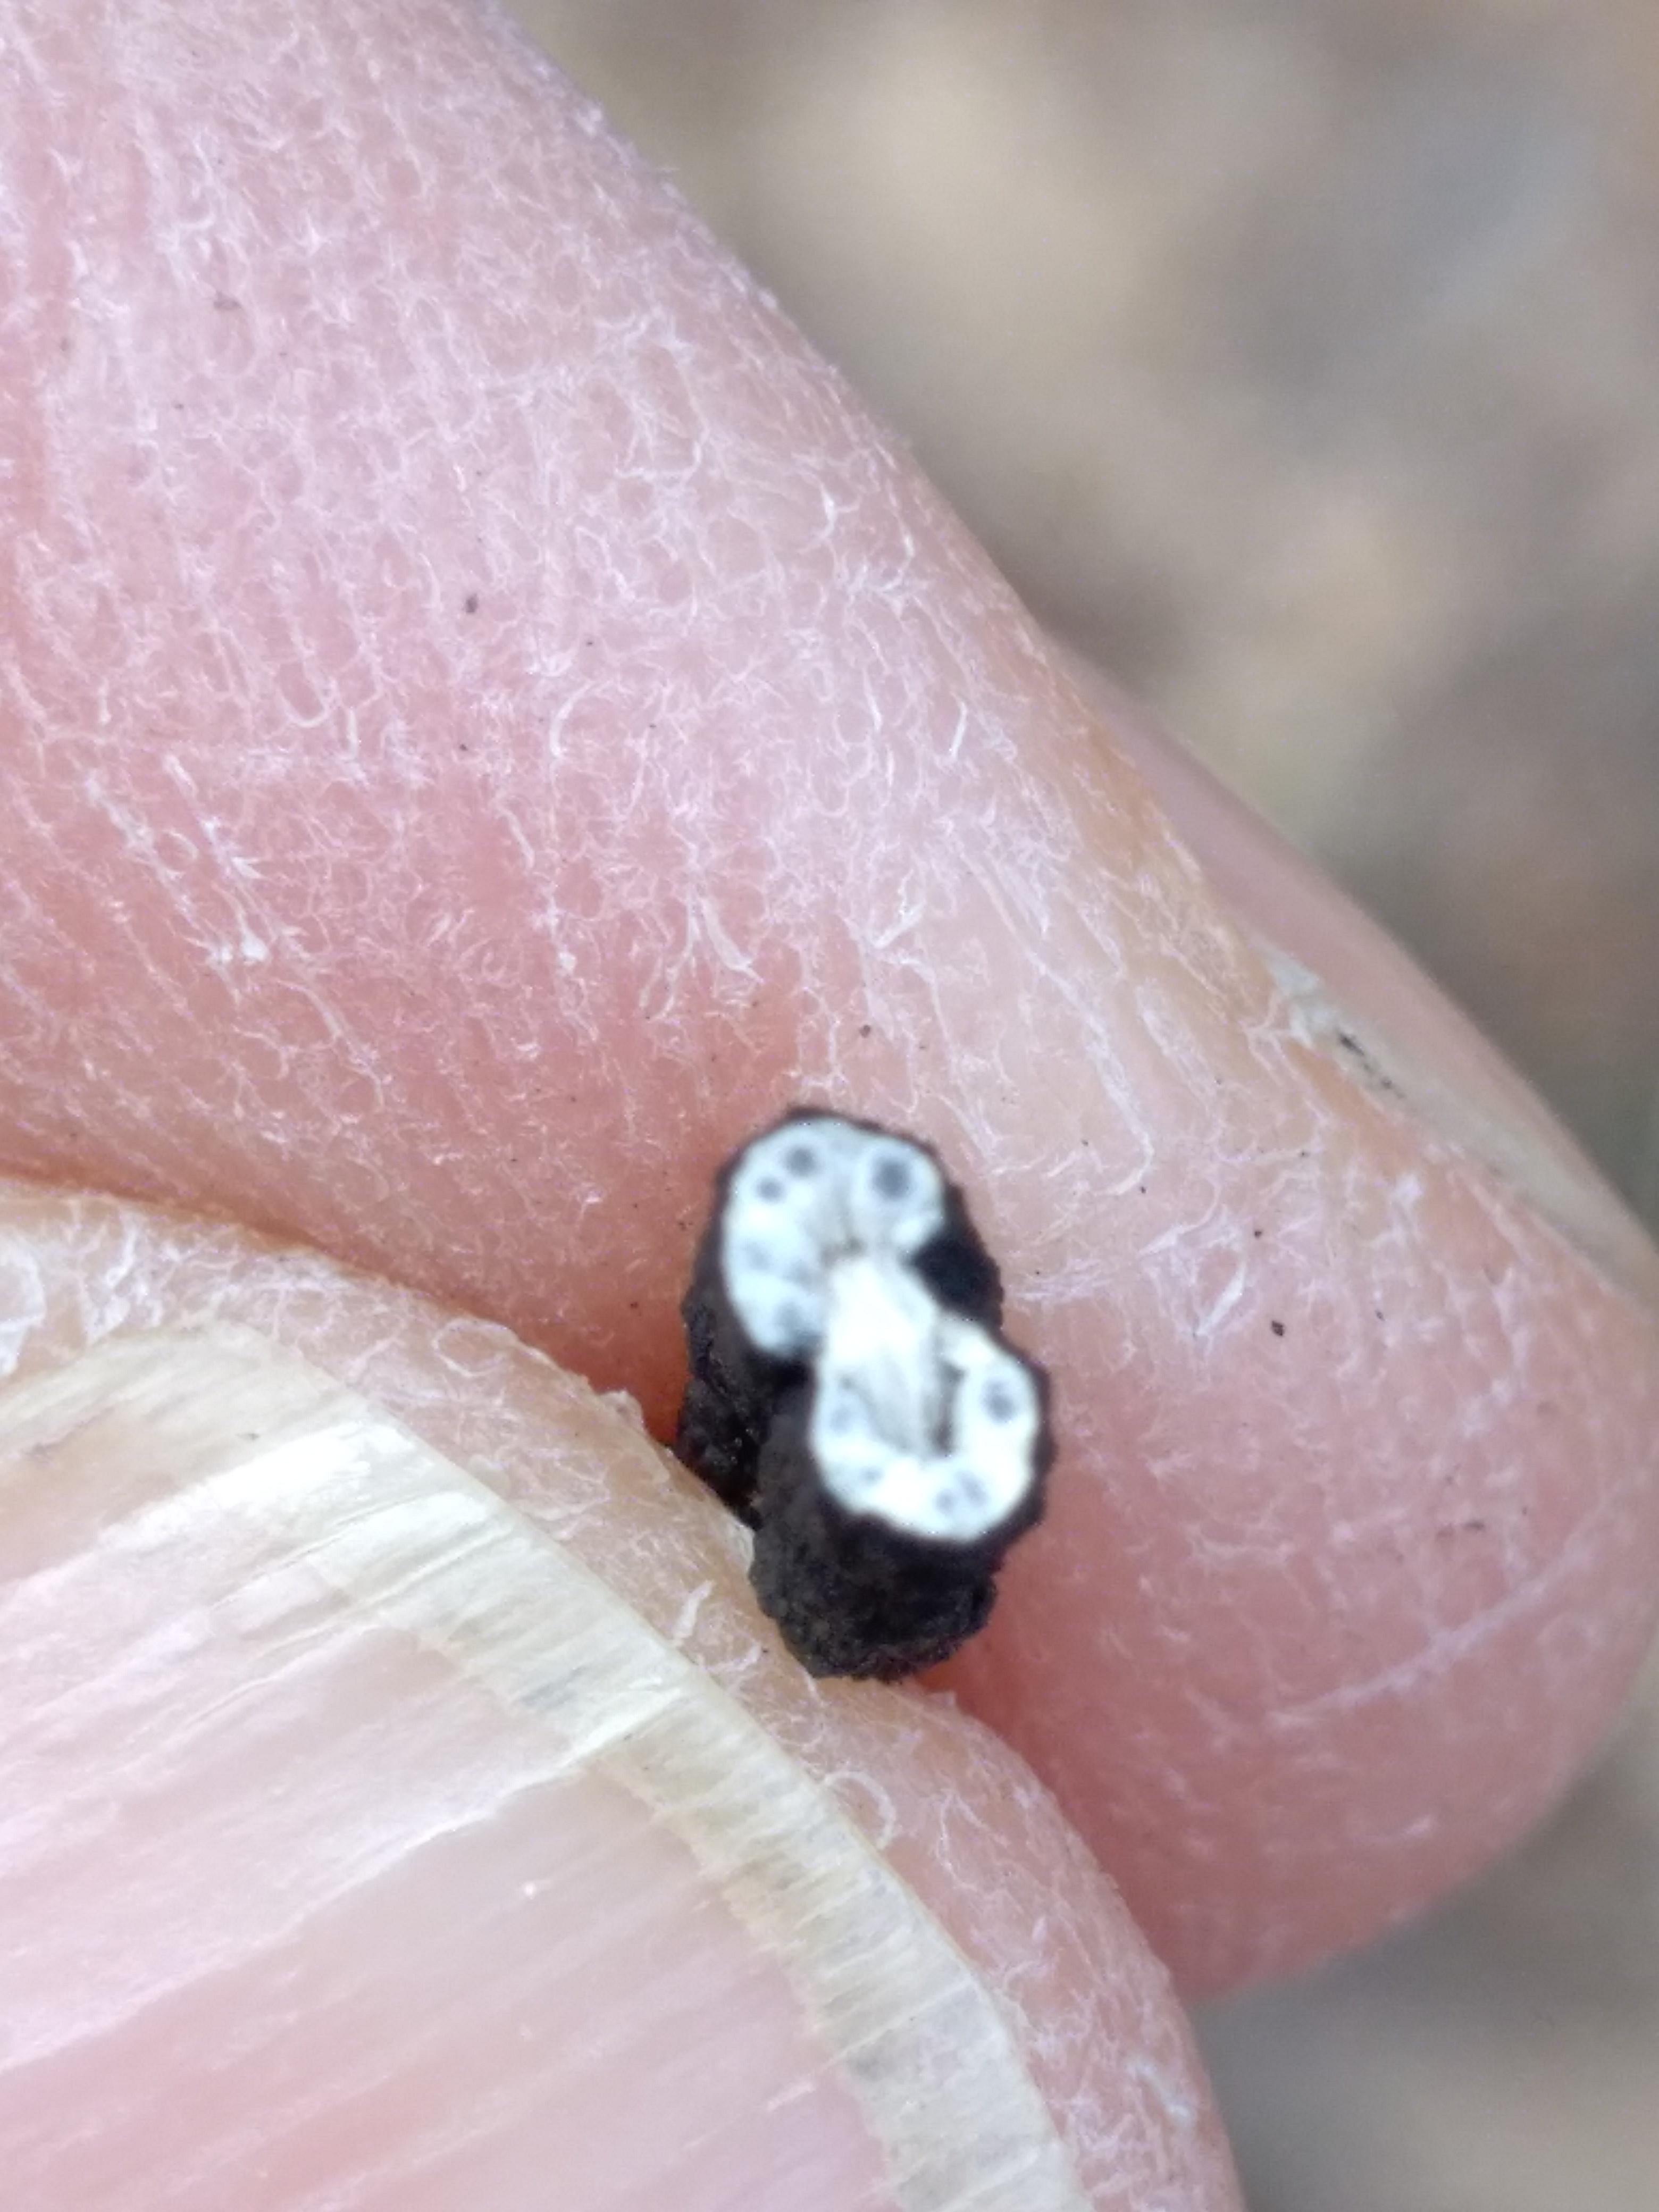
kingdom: Fungi
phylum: Ascomycota
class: Sordariomycetes
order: Xylariales
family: Xylariaceae
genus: Xylaria
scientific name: Xylaria hypoxylon
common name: grenet stødsvamp
